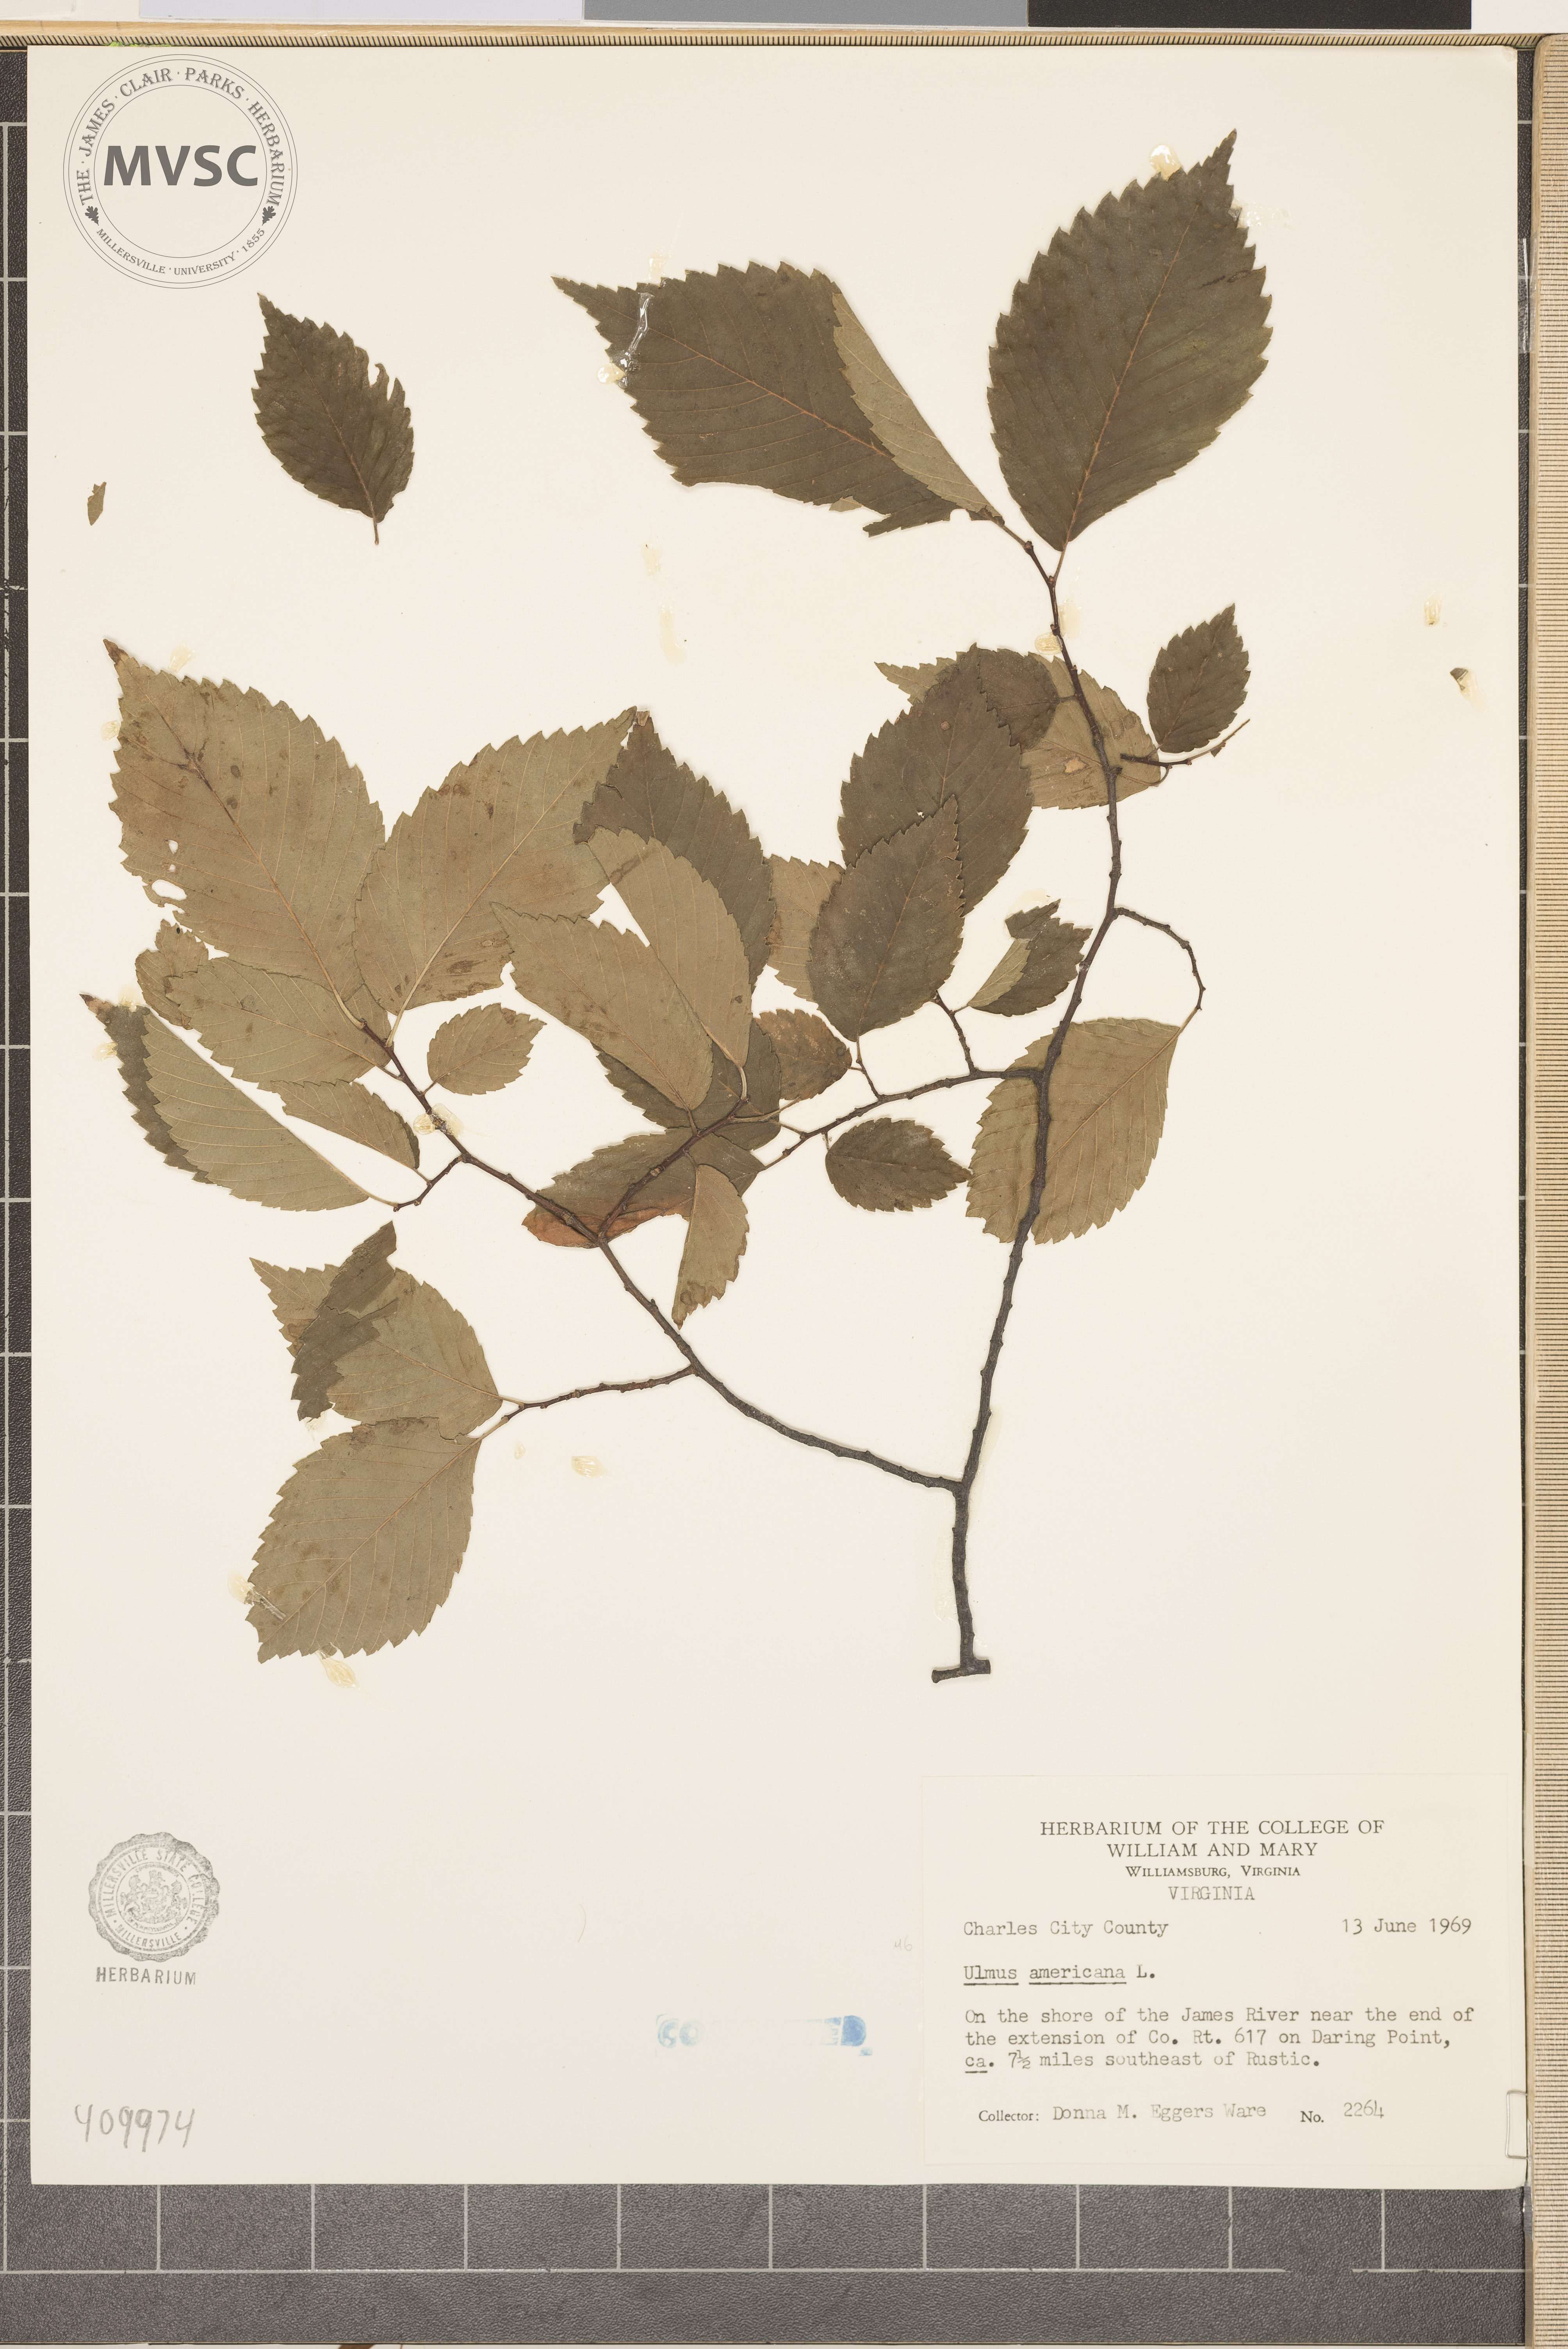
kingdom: Plantae
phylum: Tracheophyta
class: Magnoliopsida
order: Rosales
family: Ulmaceae
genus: Ulmus
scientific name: Ulmus americana
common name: American elm
